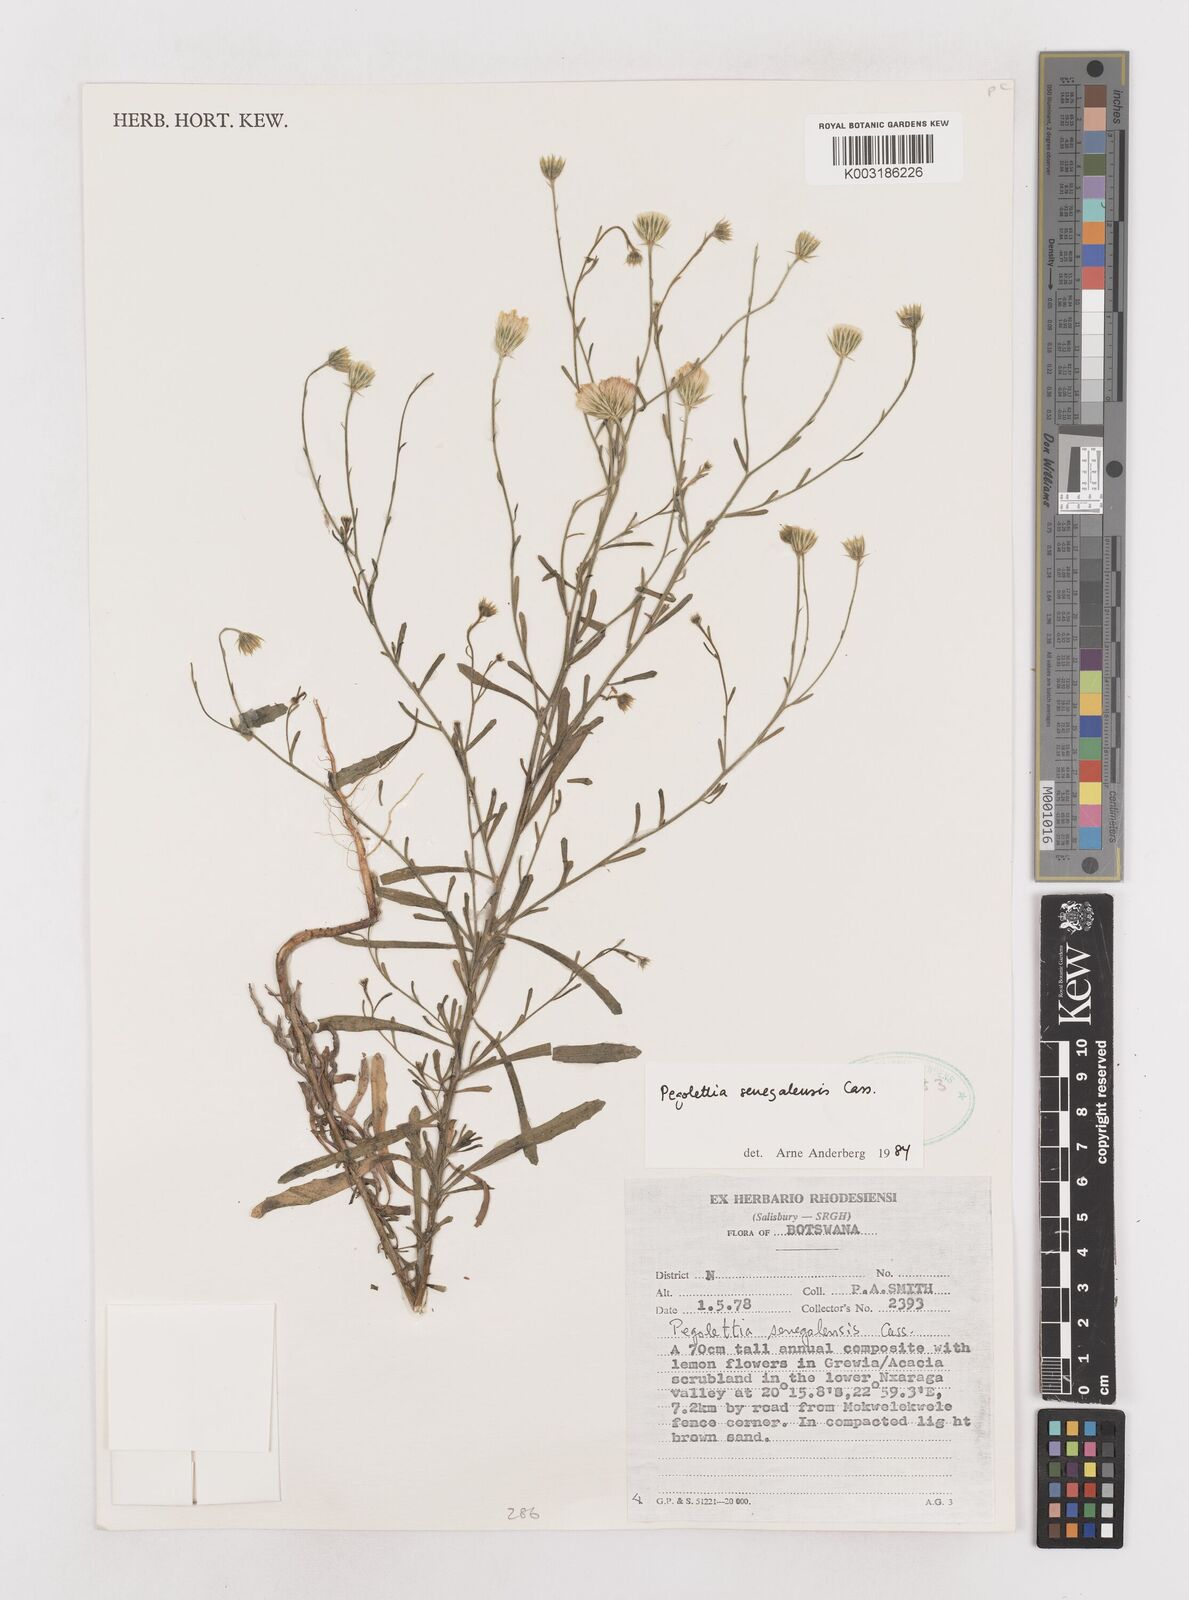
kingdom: Plantae
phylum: Tracheophyta
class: Magnoliopsida
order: Asterales
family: Asteraceae
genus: Pegolettia
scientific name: Pegolettia senegalensis
